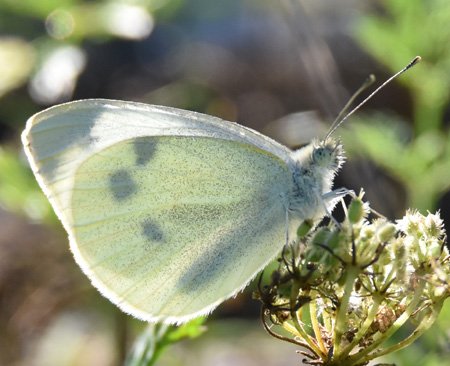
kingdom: Animalia
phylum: Arthropoda
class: Insecta
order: Lepidoptera
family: Pieridae
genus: Pieris
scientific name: Pieris rapae
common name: Cabbage White
